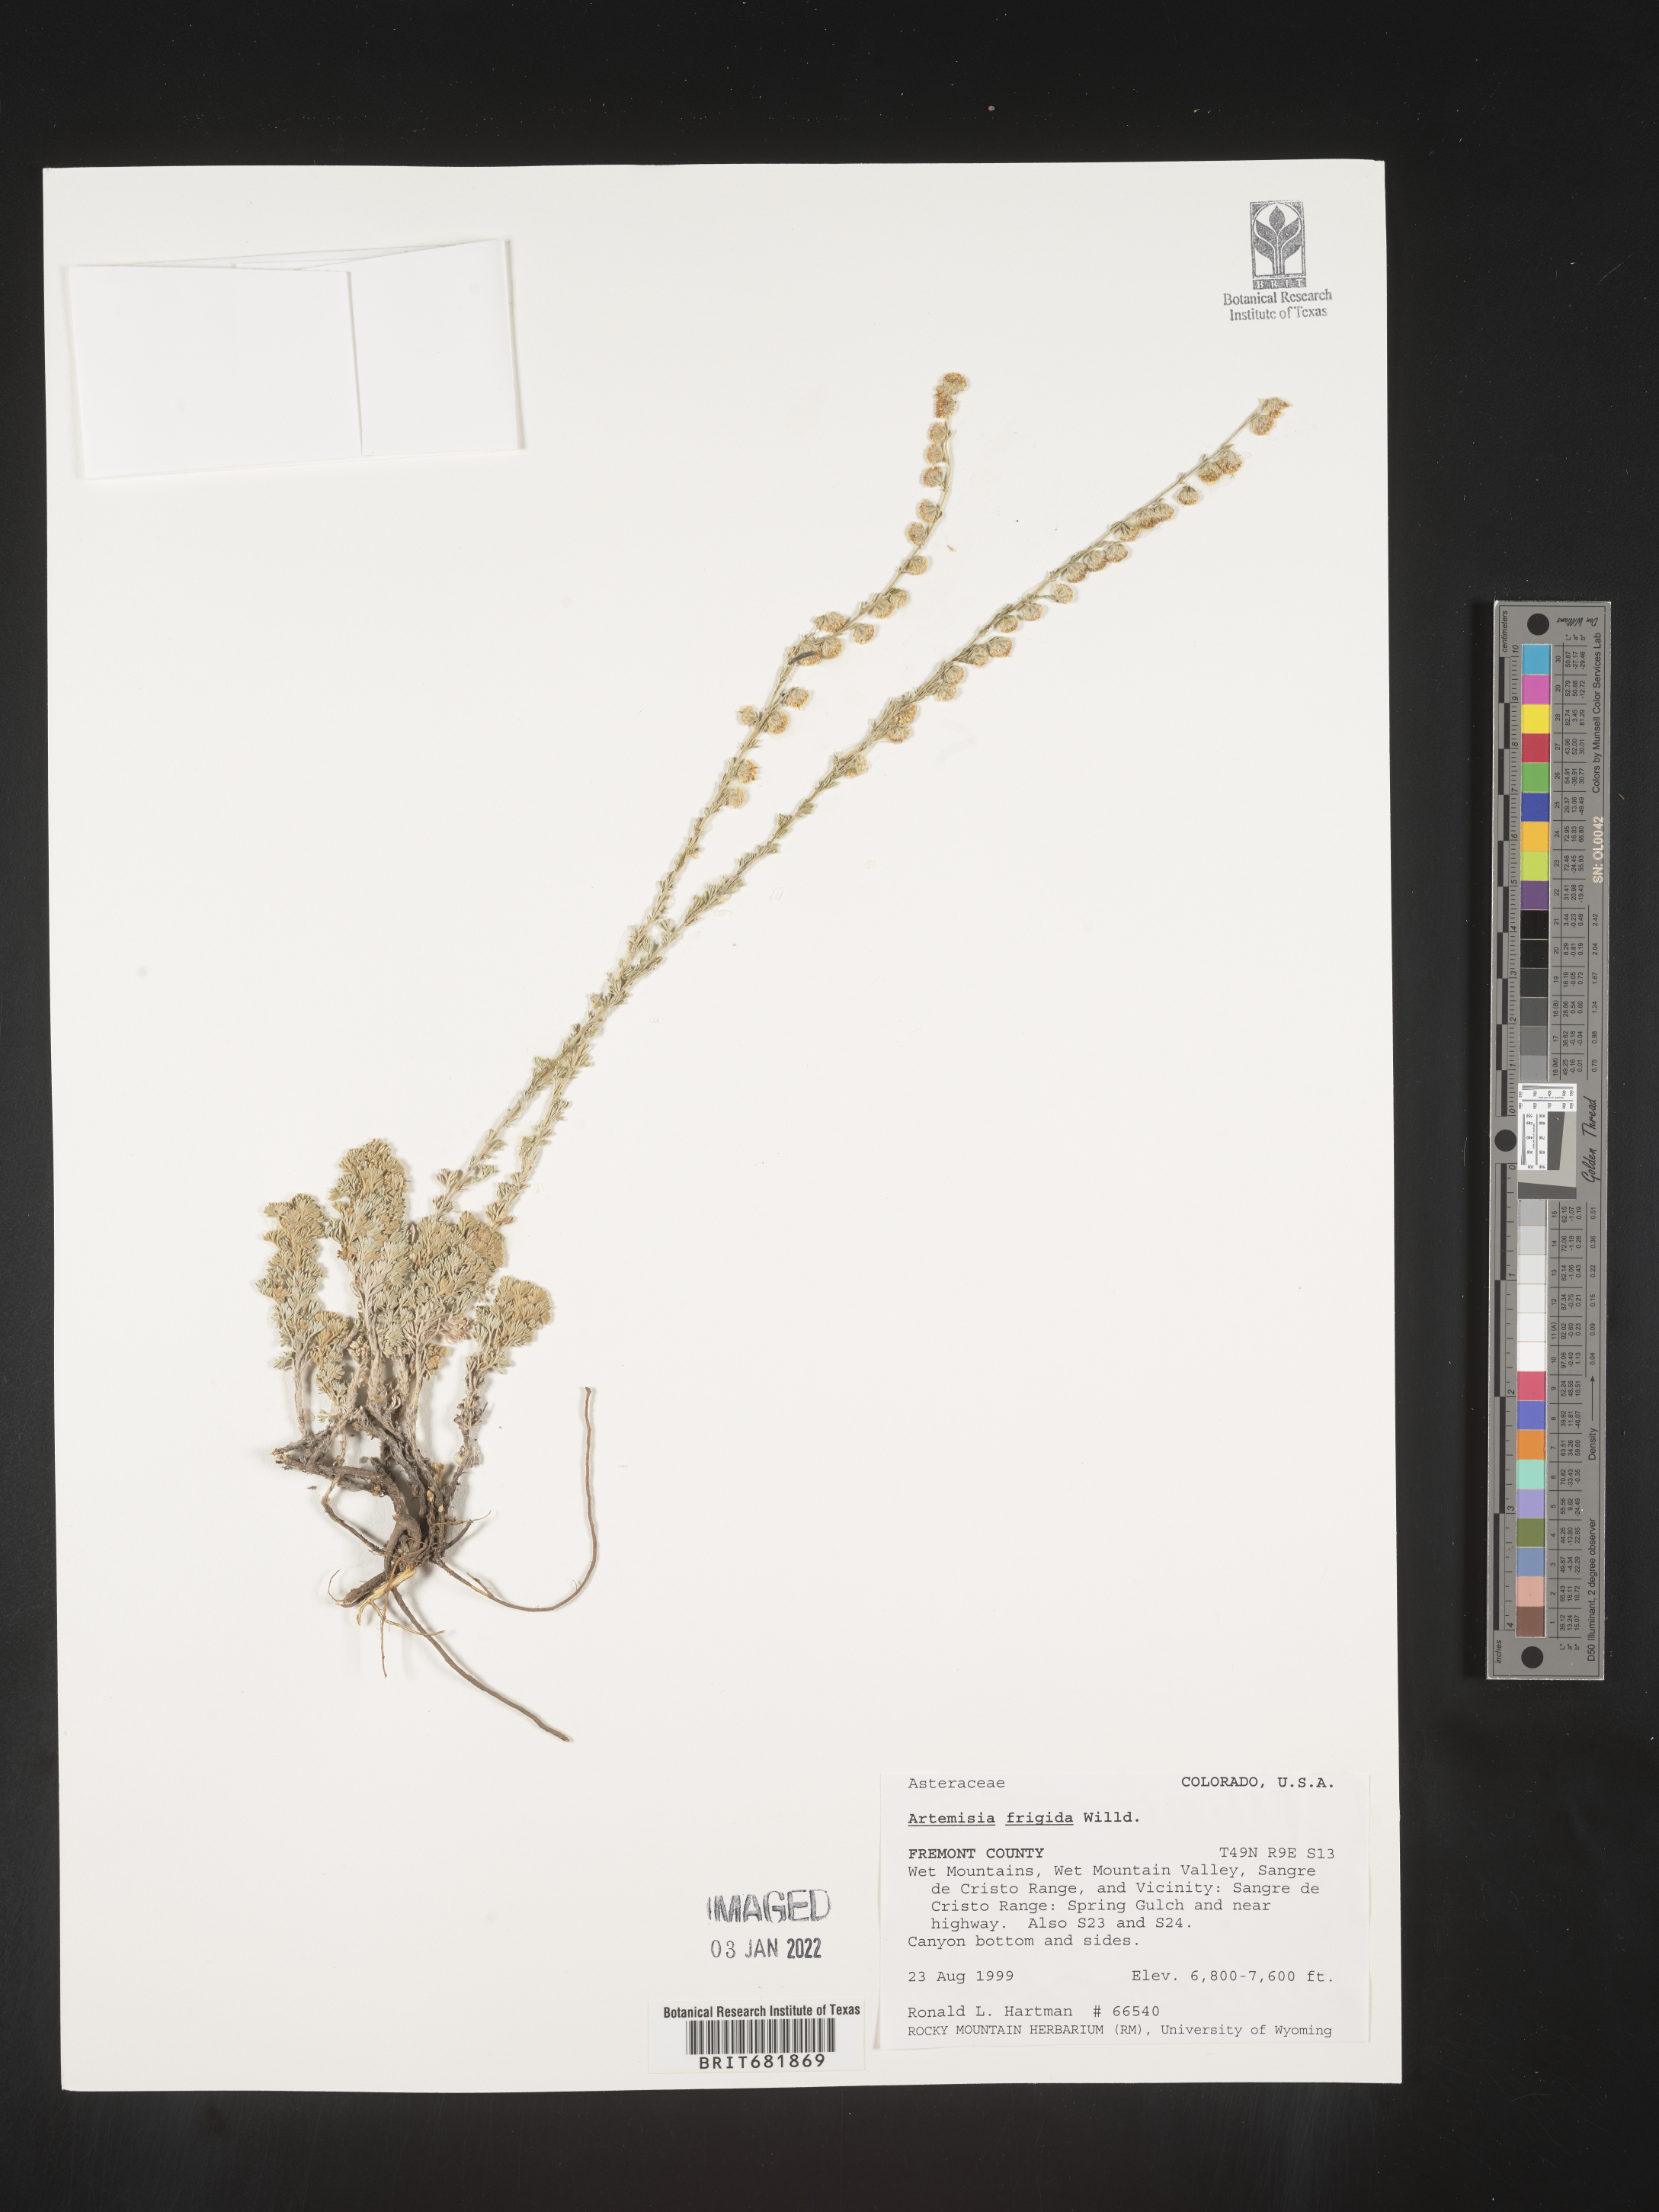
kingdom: Plantae
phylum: Tracheophyta
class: Magnoliopsida
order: Asterales
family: Asteraceae
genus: Artemisia
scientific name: Artemisia frigida
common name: Prairie sagewort
